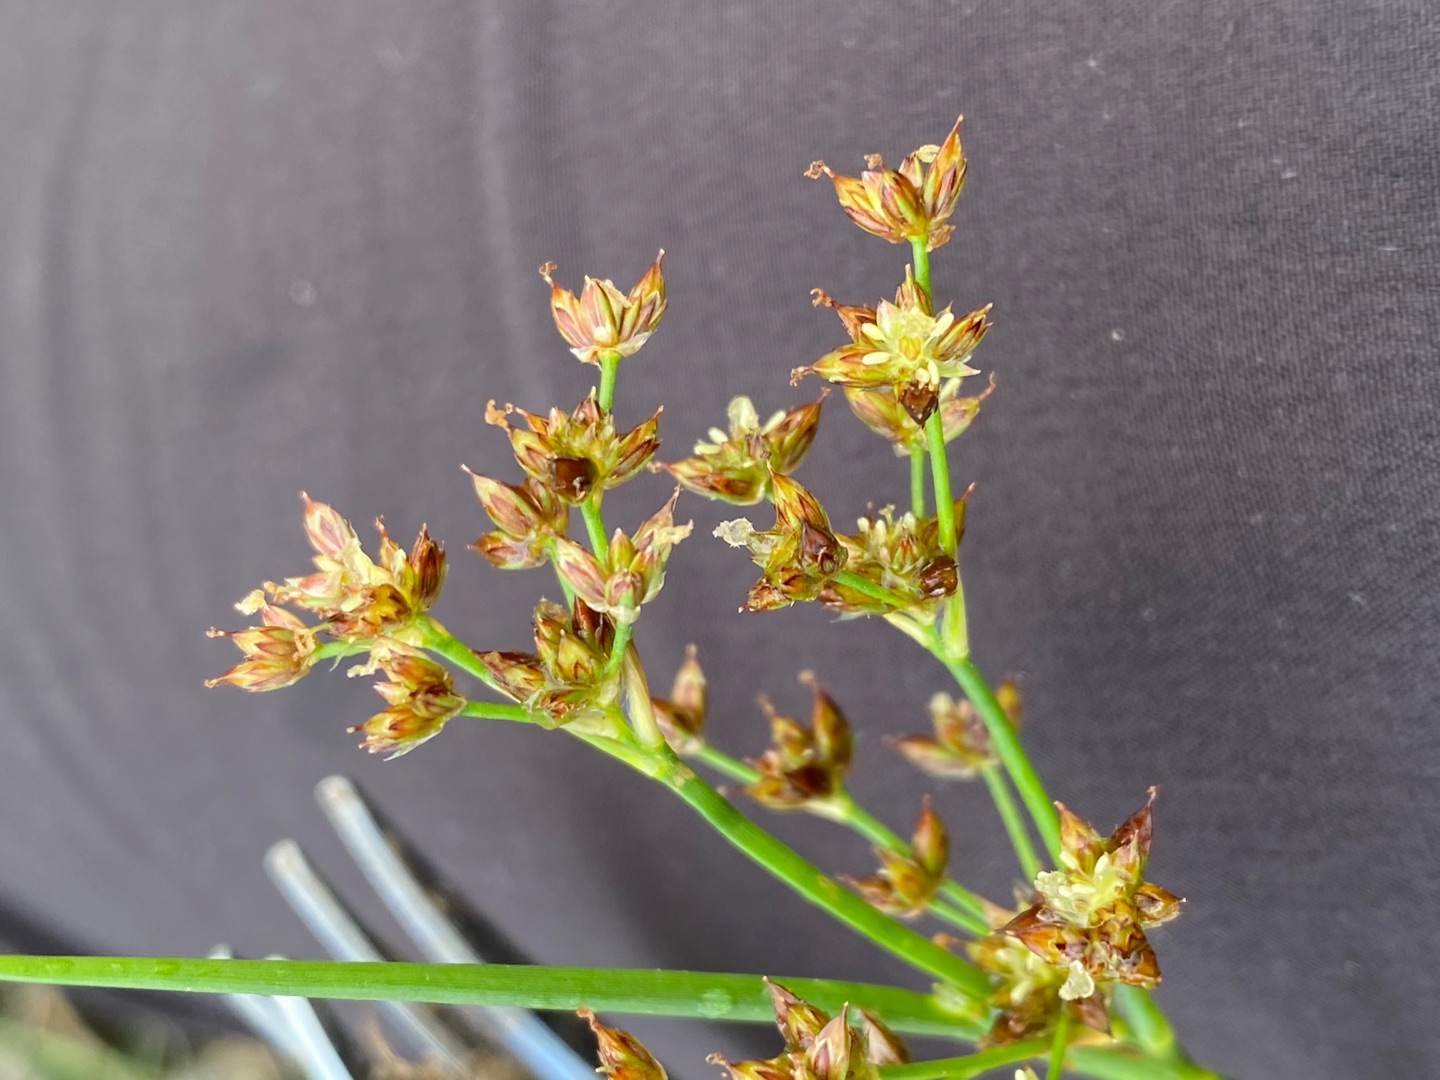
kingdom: Plantae
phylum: Tracheophyta
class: Liliopsida
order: Poales
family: Juncaceae
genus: Juncus
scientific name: Juncus articulatus
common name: Glanskapslet siv
